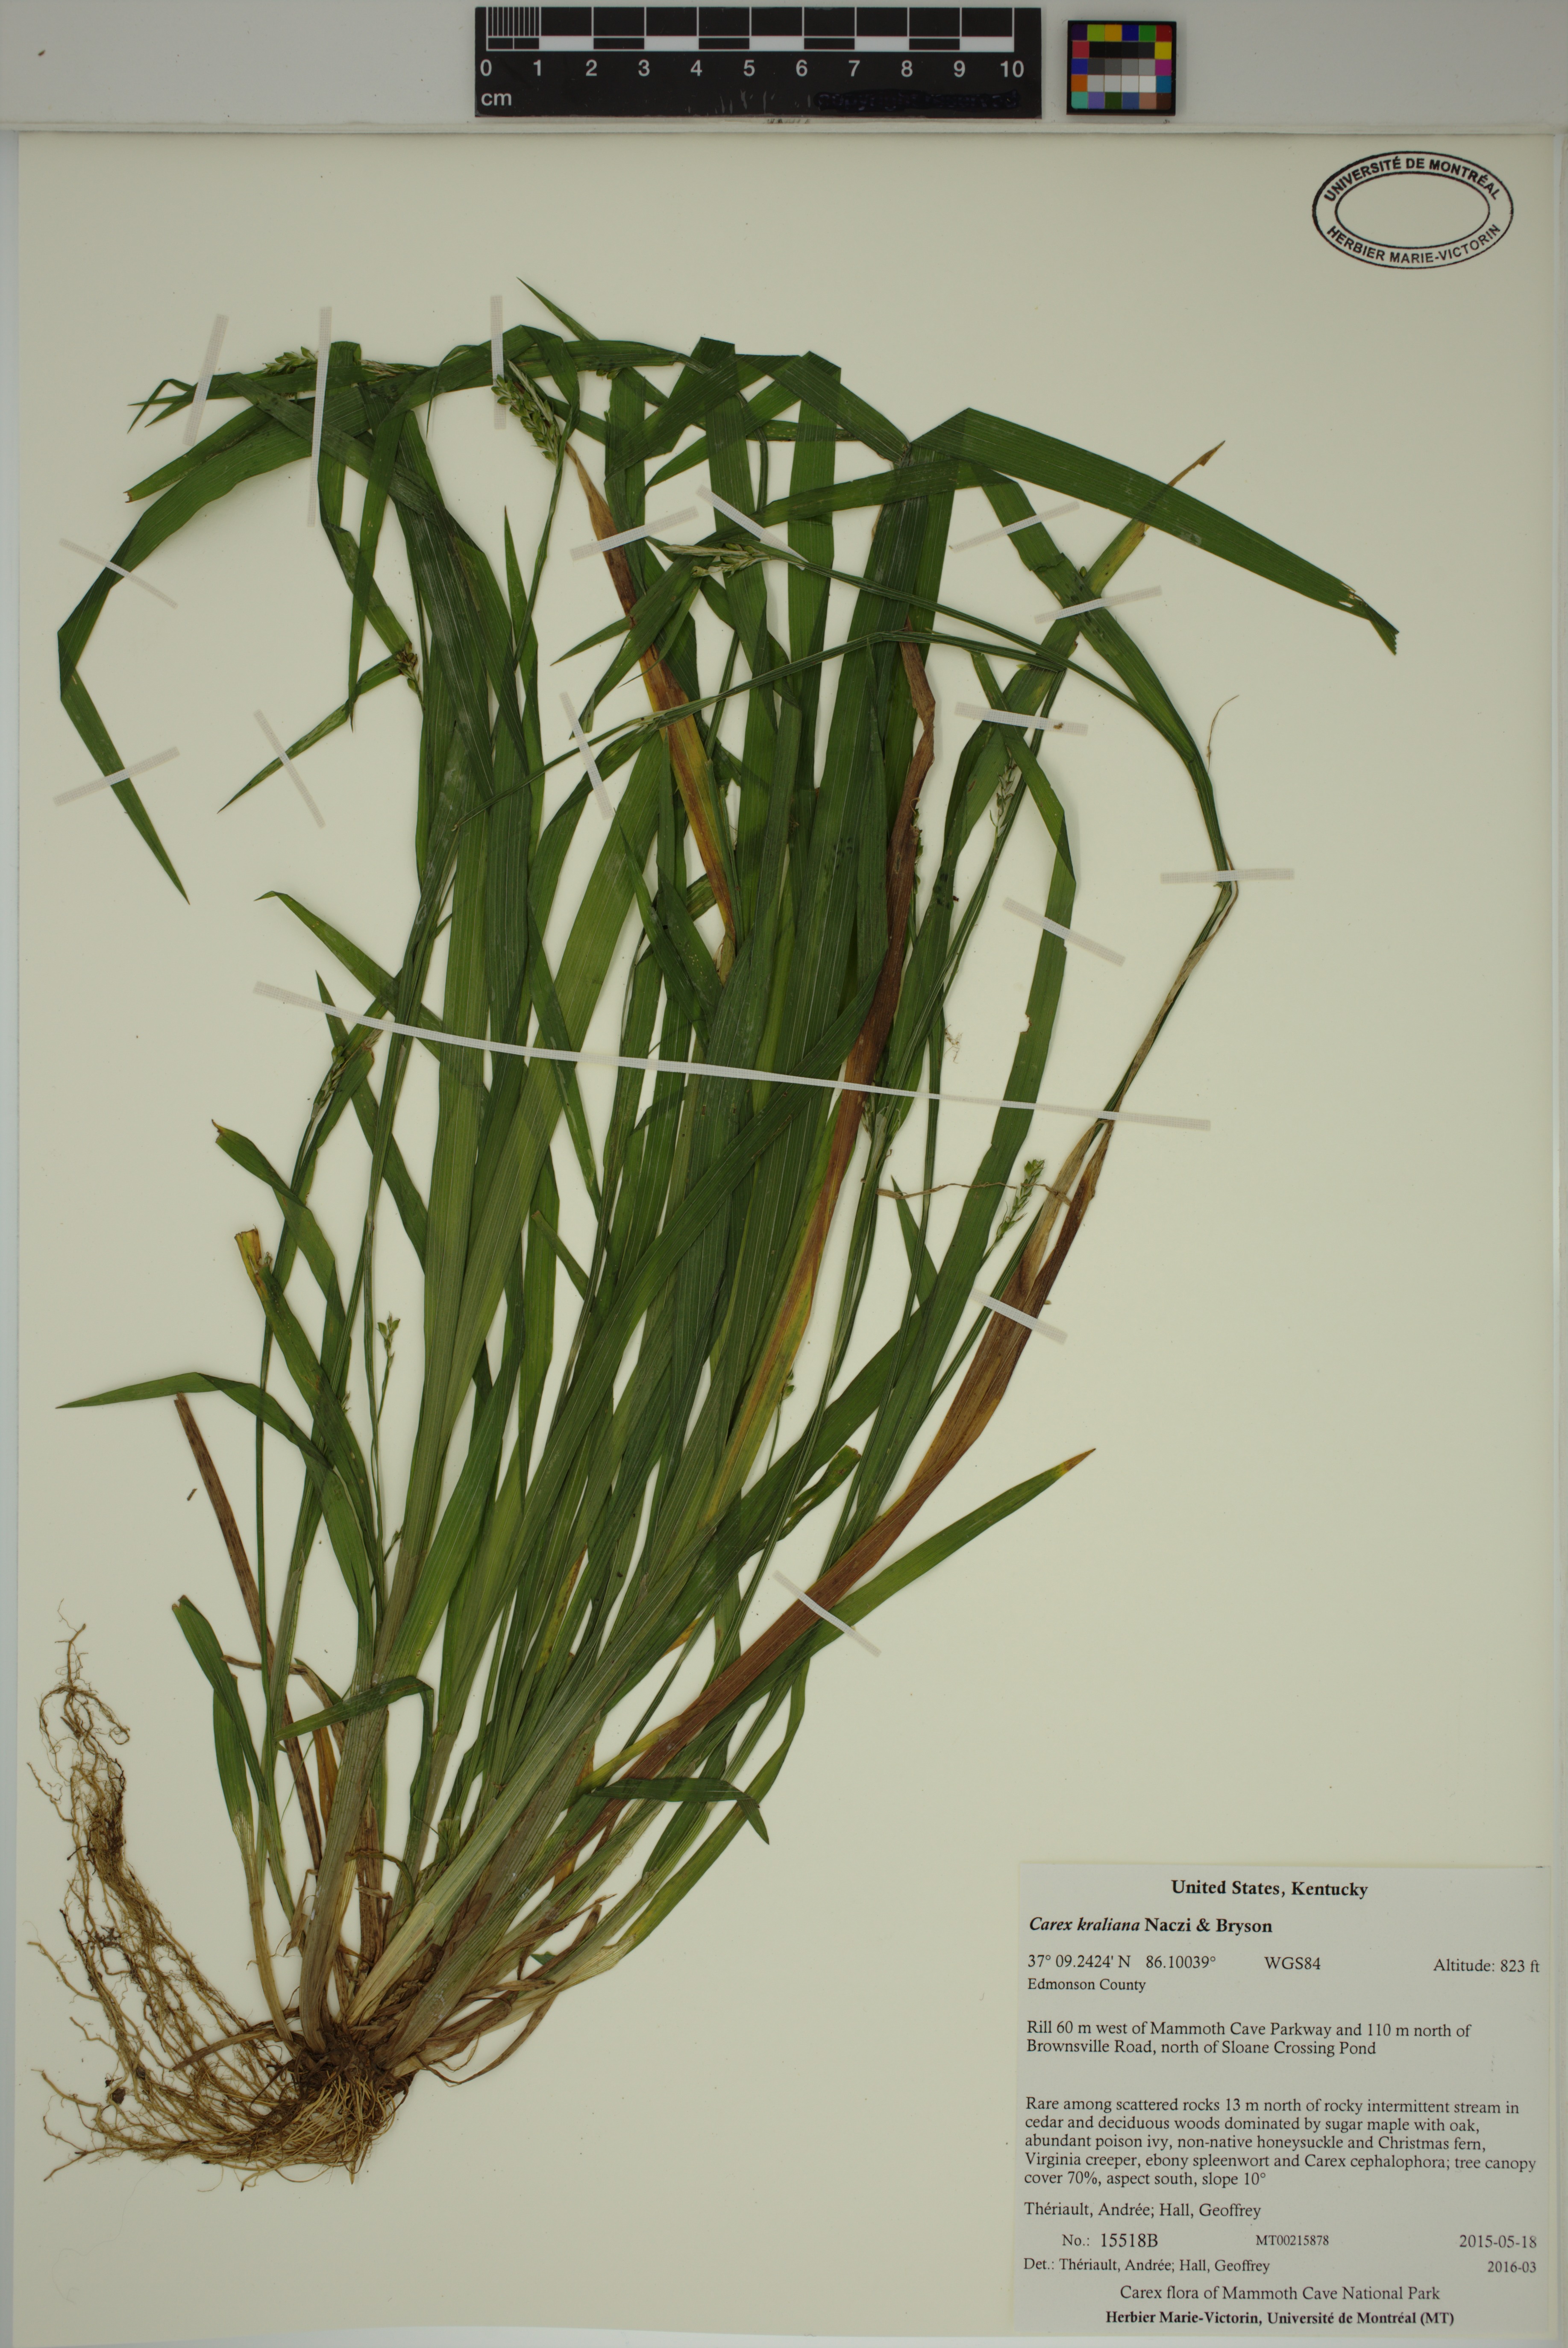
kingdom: Plantae
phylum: Tracheophyta
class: Liliopsida
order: Poales
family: Cyperaceae
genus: Carex
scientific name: Carex kraliana
